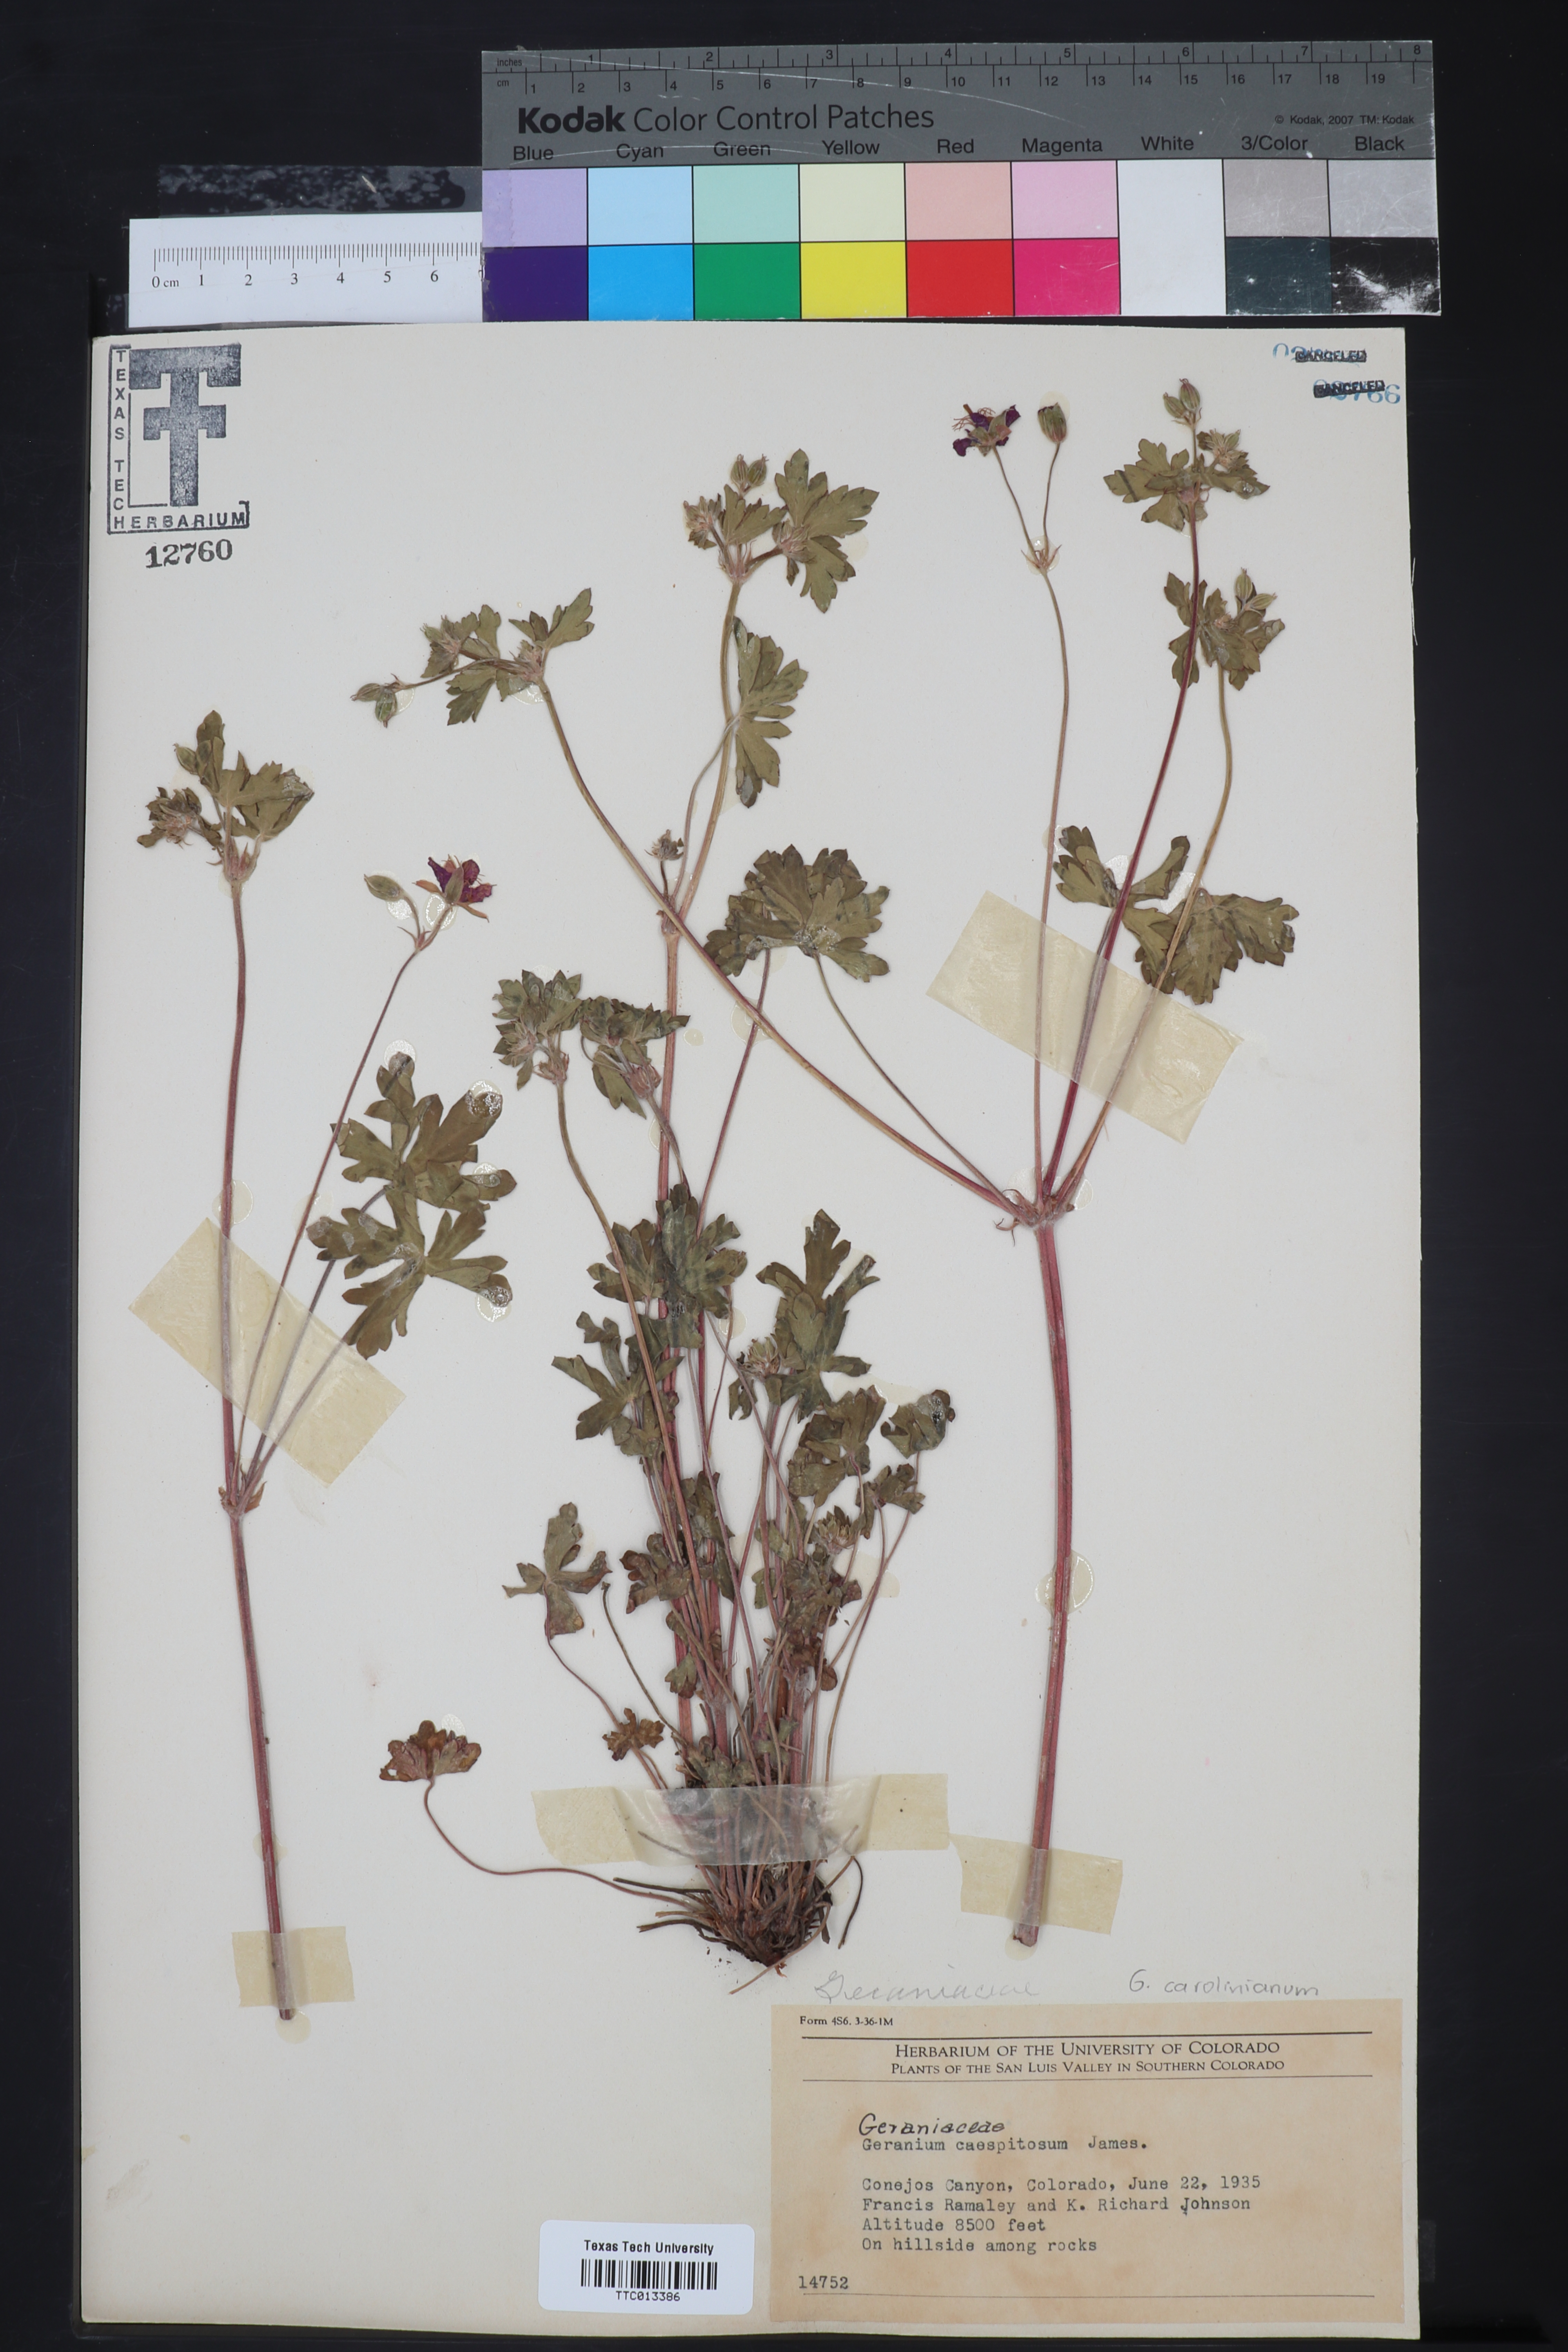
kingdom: Plantae
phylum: Tracheophyta
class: Magnoliopsida
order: Geraniales
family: Geraniaceae
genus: Geranium
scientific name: Geranium caespitosum
